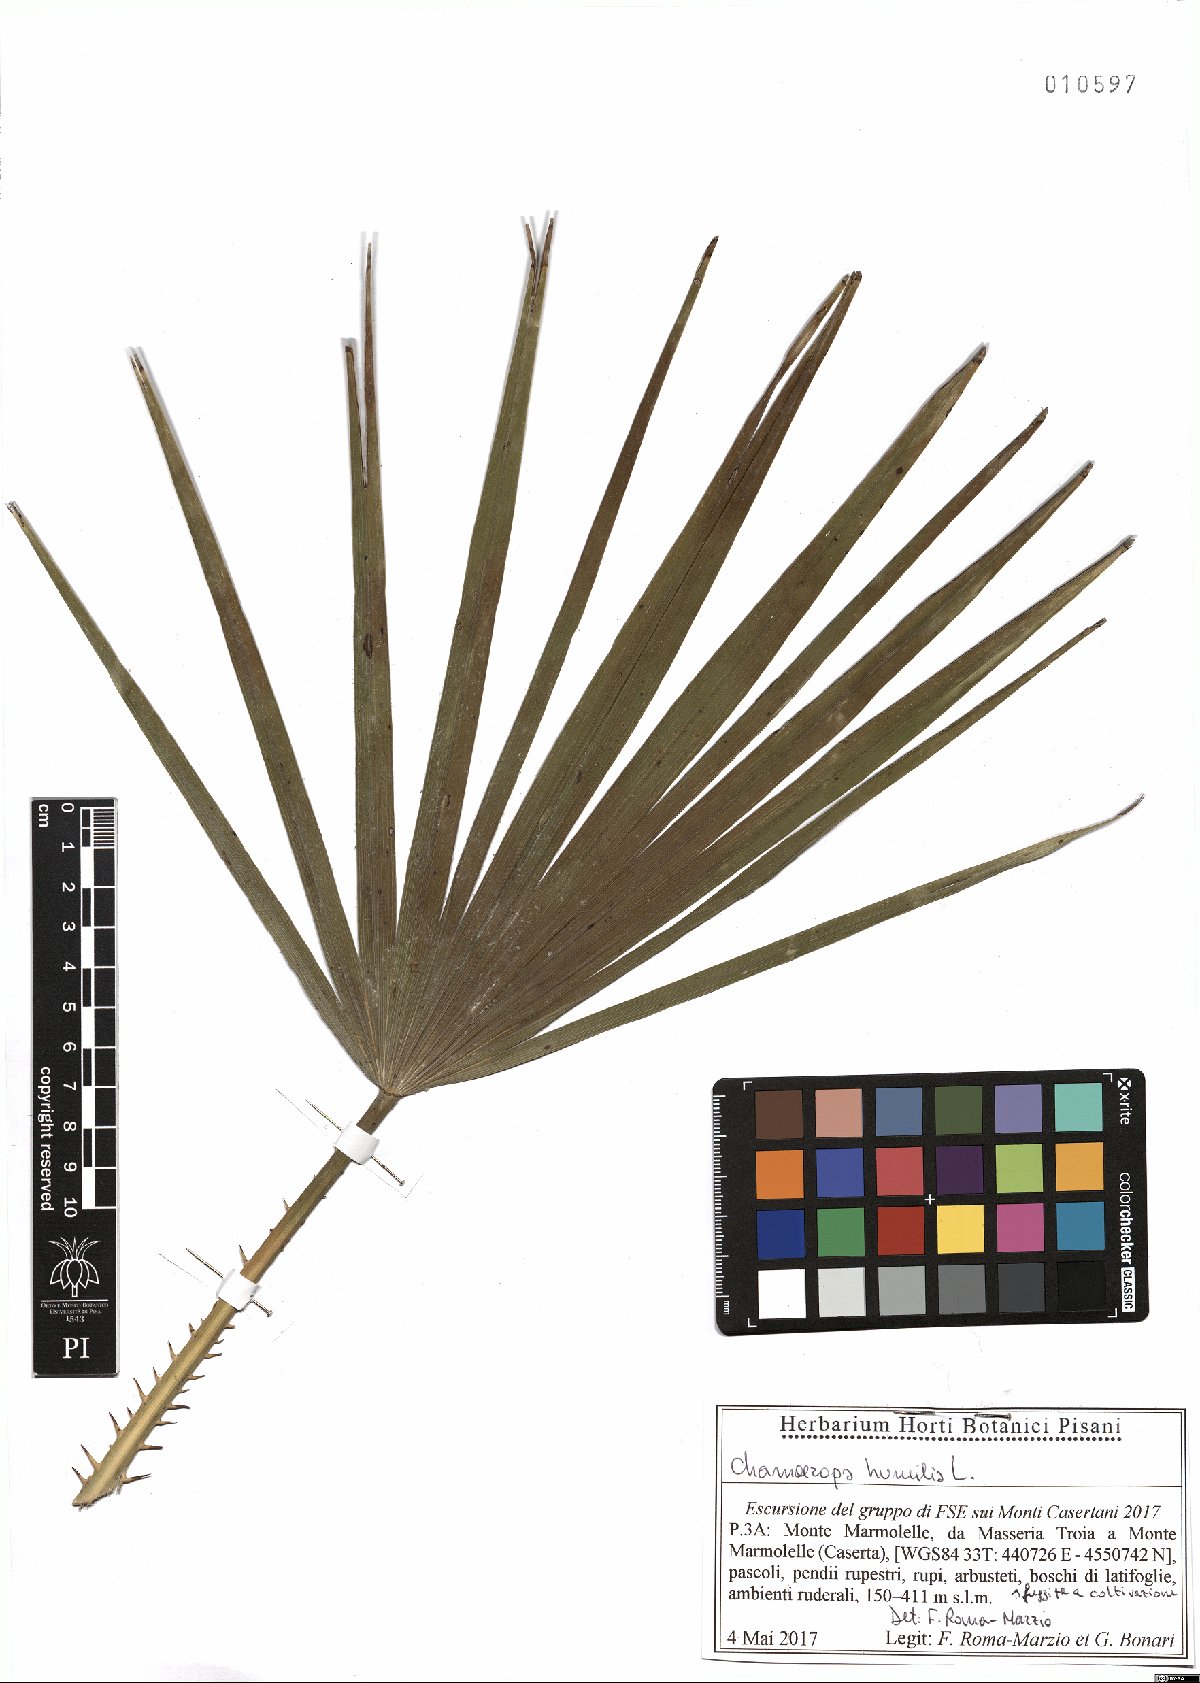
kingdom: Plantae
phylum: Tracheophyta
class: Liliopsida
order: Arecales
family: Arecaceae
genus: Chamaerops
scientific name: Chamaerops humilis
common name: Dwarf fan palm
